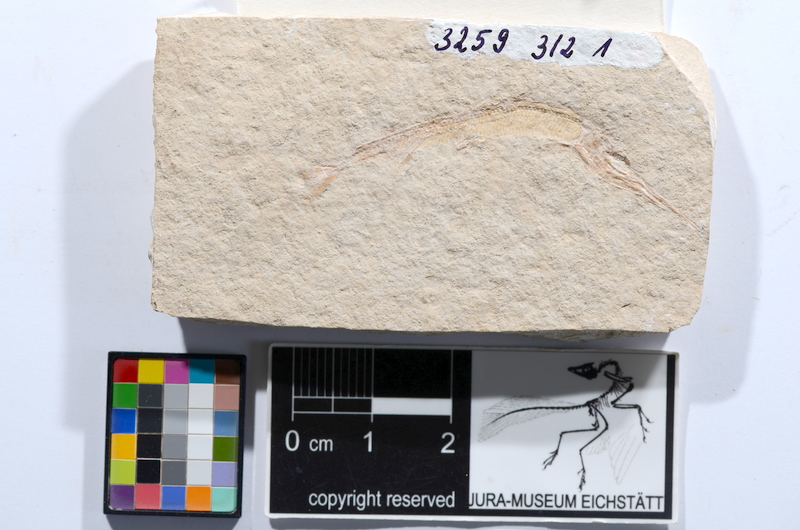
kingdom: Animalia
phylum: Chordata
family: Aspidorhynchidae
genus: Belonostomus
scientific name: Belonostomus
